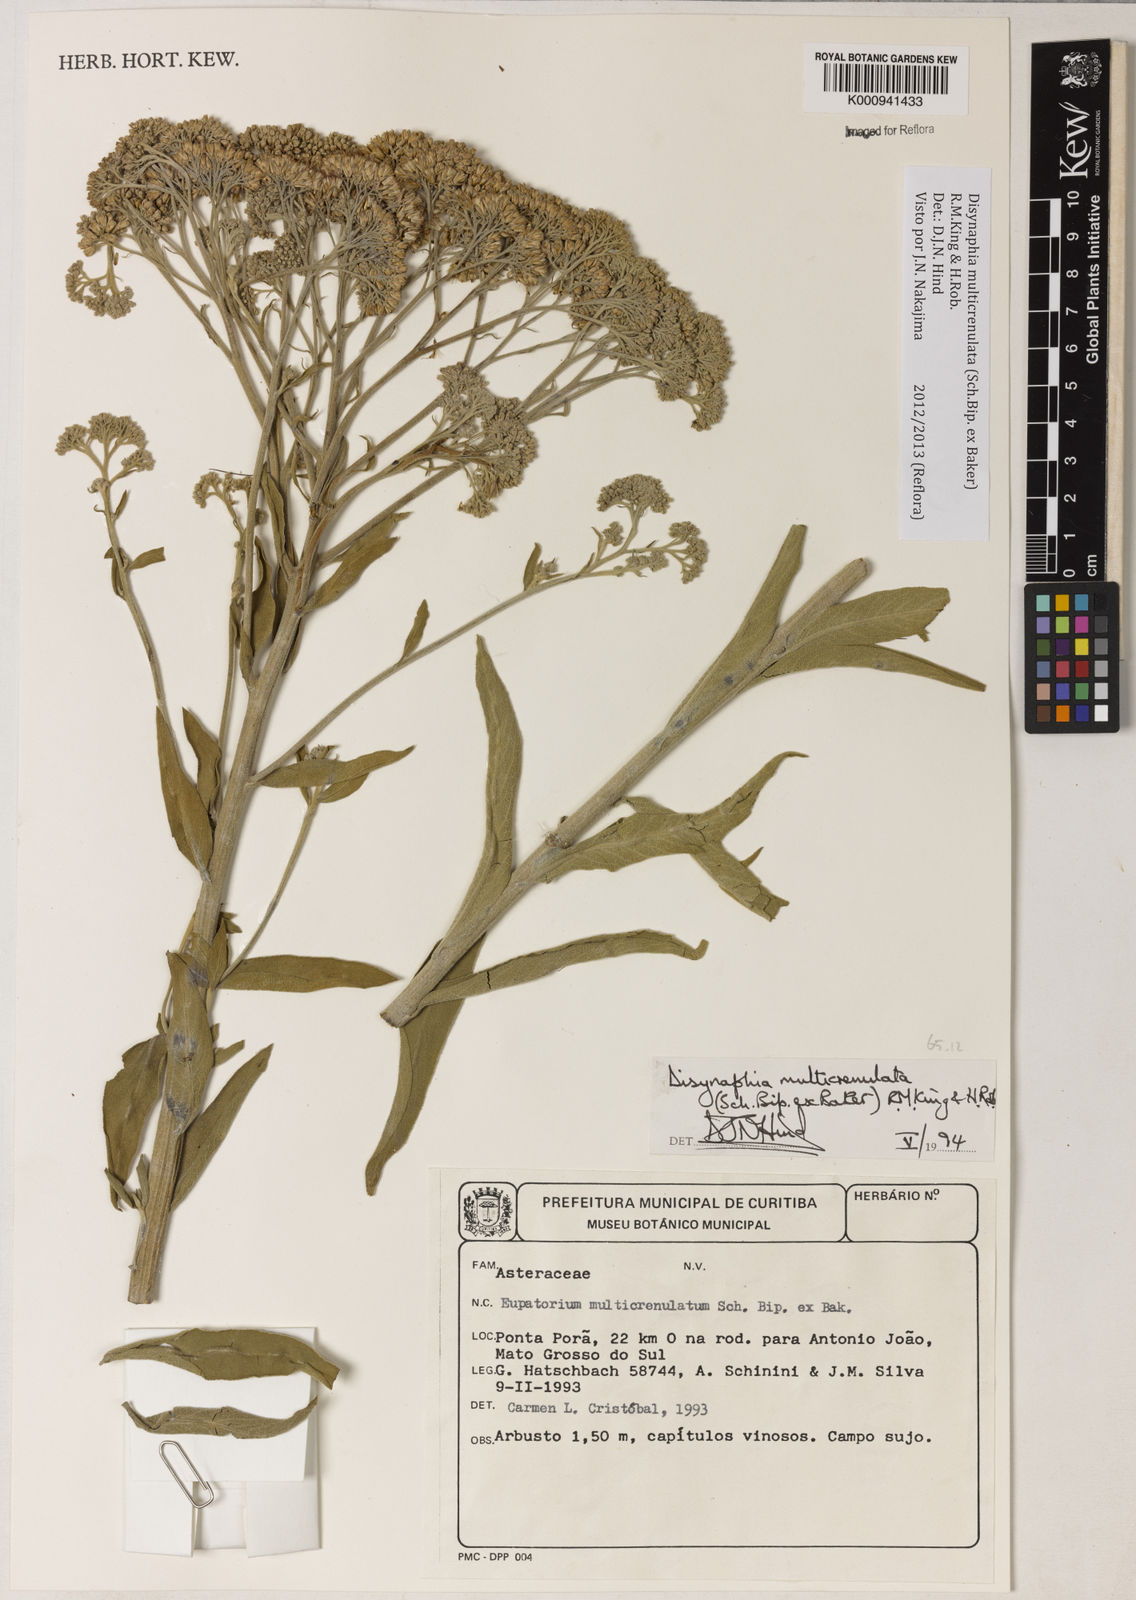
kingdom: Plantae
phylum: Tracheophyta
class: Magnoliopsida
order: Asterales
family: Asteraceae
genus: Disynaphia
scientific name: Disynaphia multicrenulata
